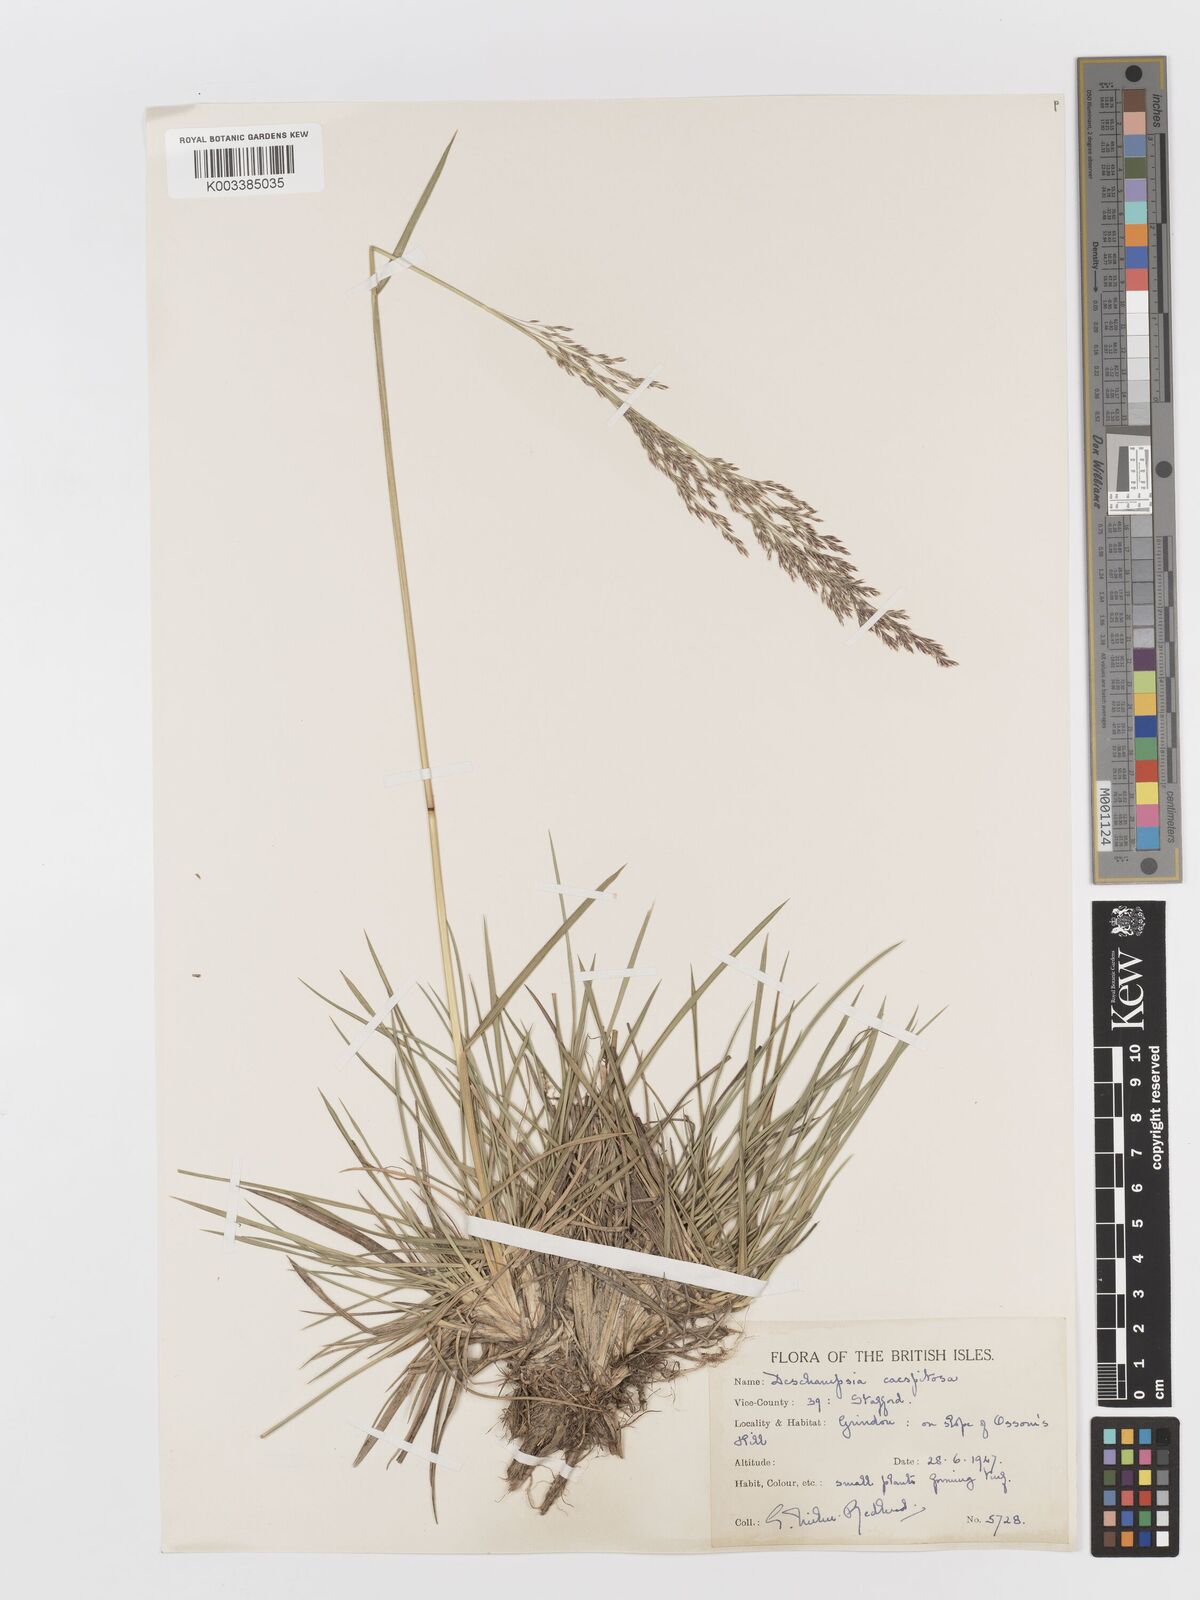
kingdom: Plantae
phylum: Tracheophyta
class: Liliopsida
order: Poales
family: Poaceae
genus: Deschampsia
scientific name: Deschampsia cespitosa
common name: Tufted hair-grass
